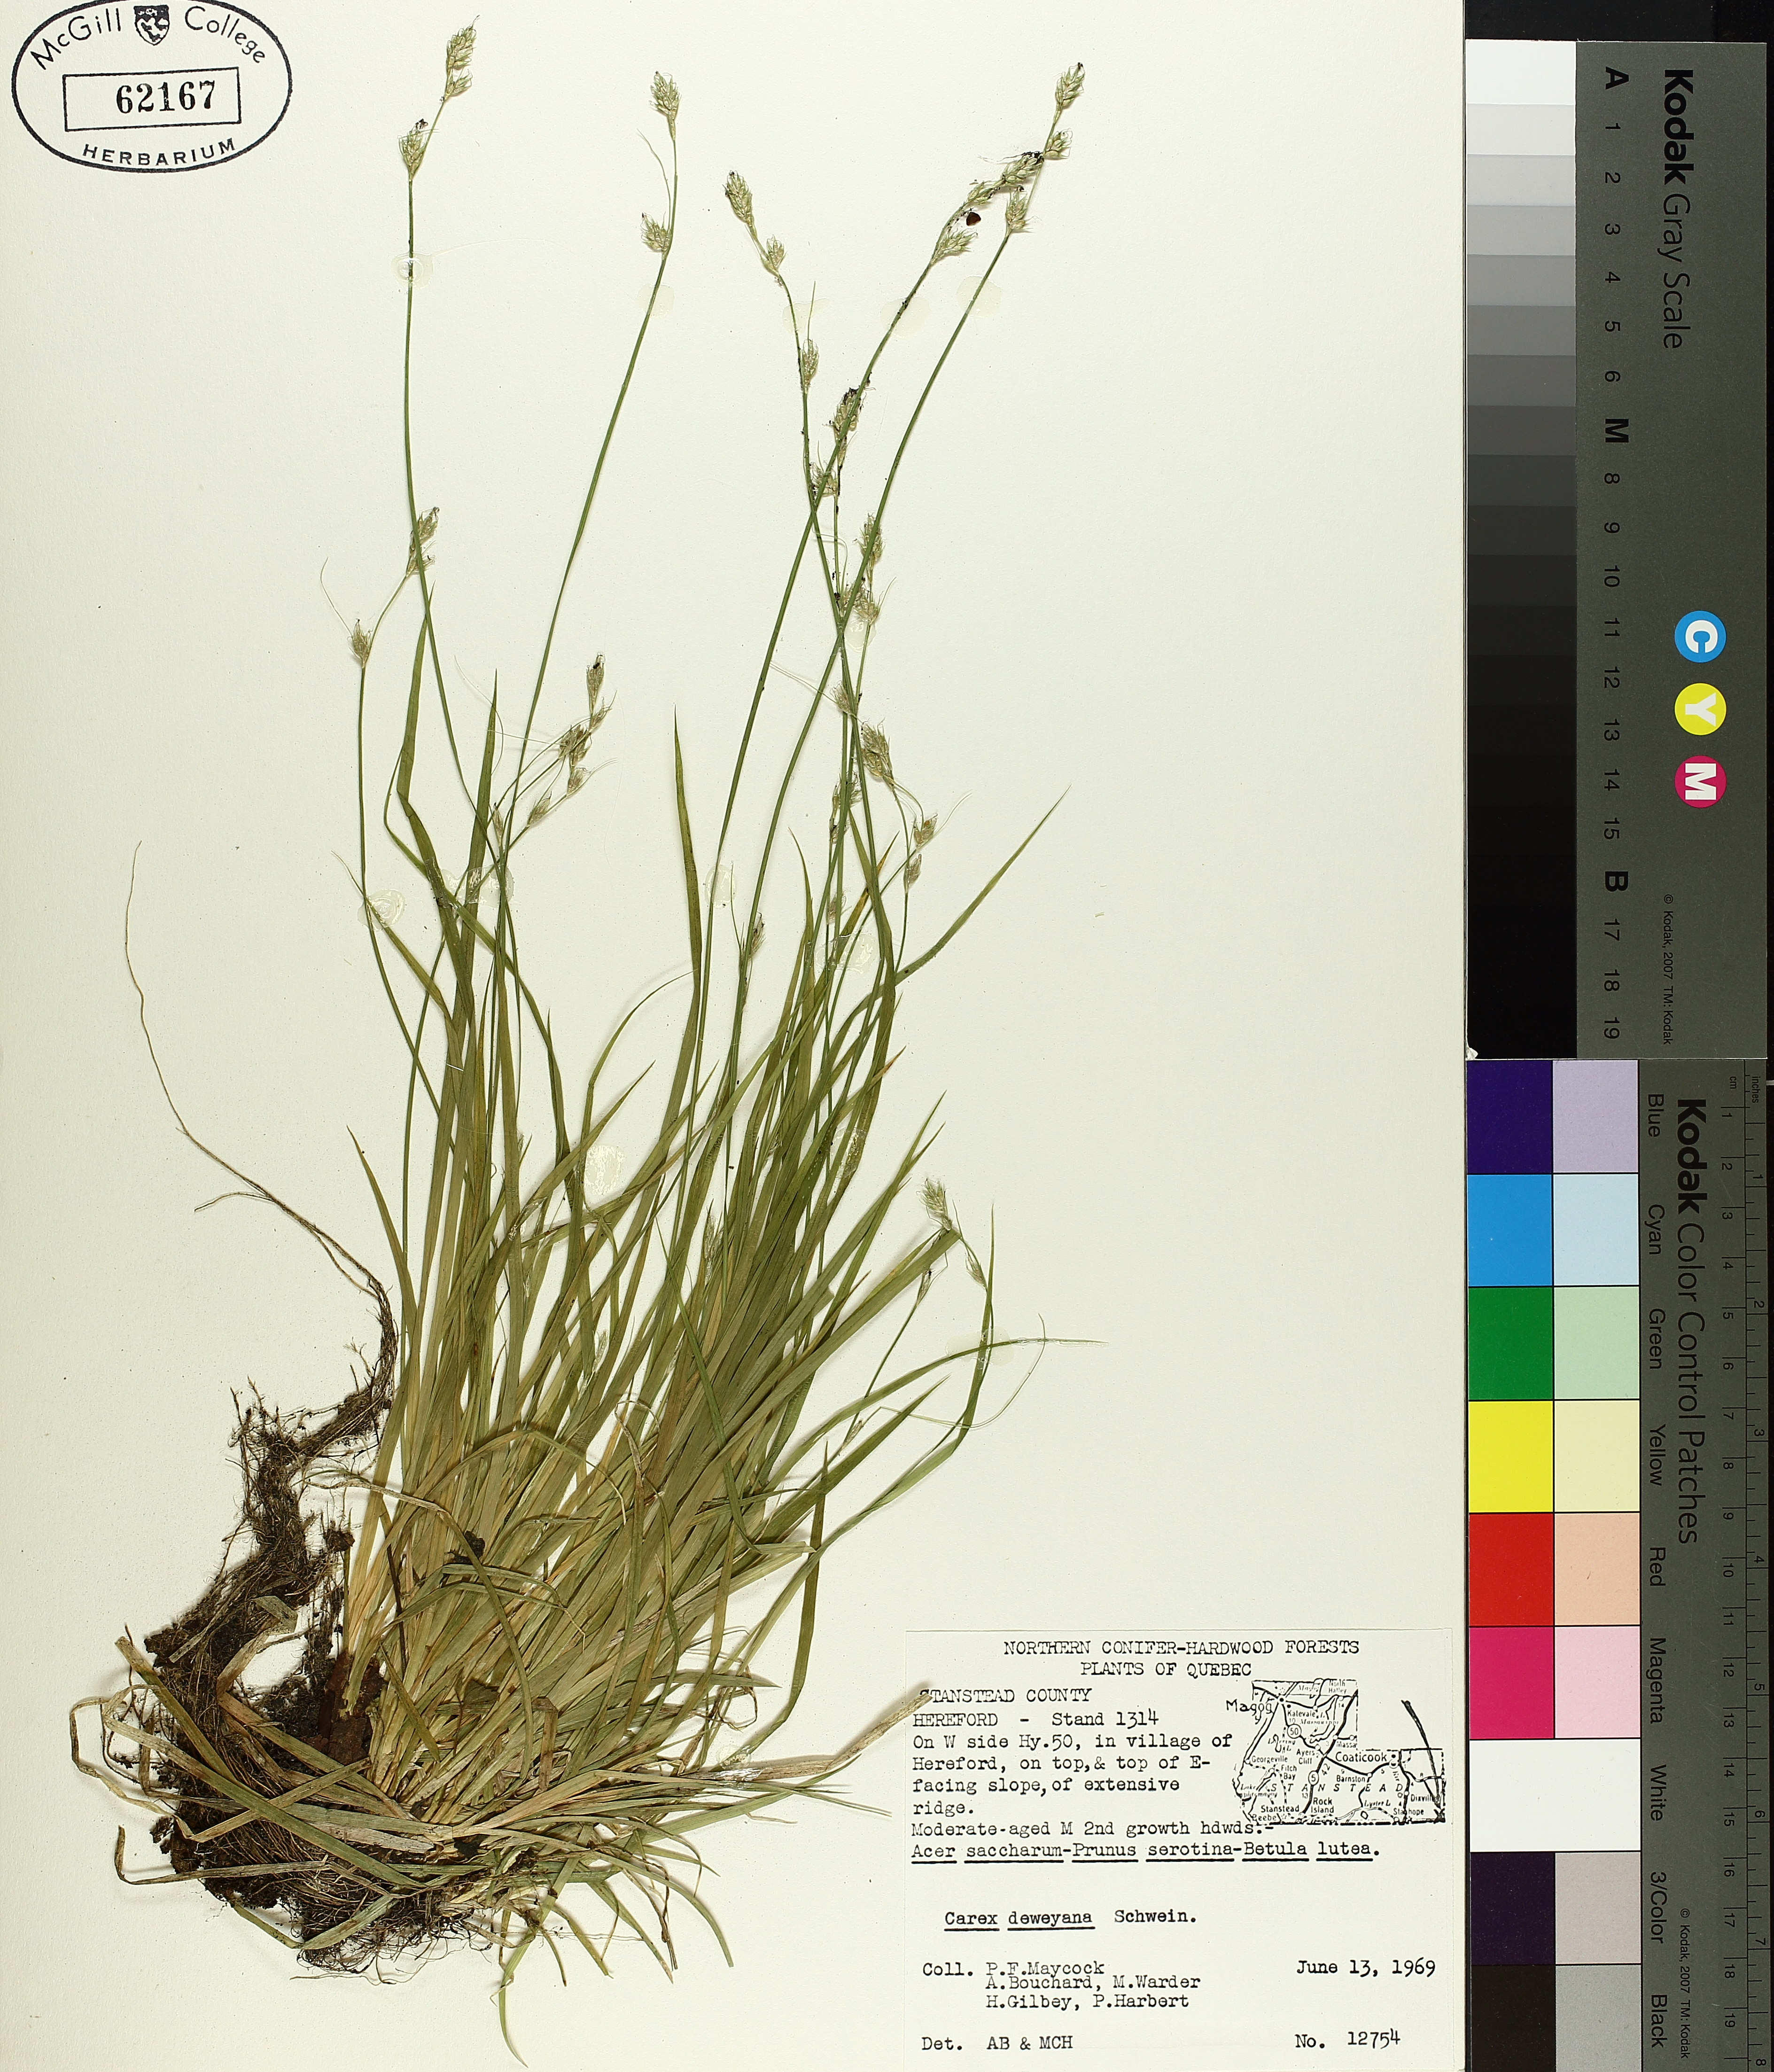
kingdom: Plantae
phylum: Tracheophyta
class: Liliopsida
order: Poales
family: Cyperaceae
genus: Carex
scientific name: Carex deweyana
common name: Dewey's sedge
